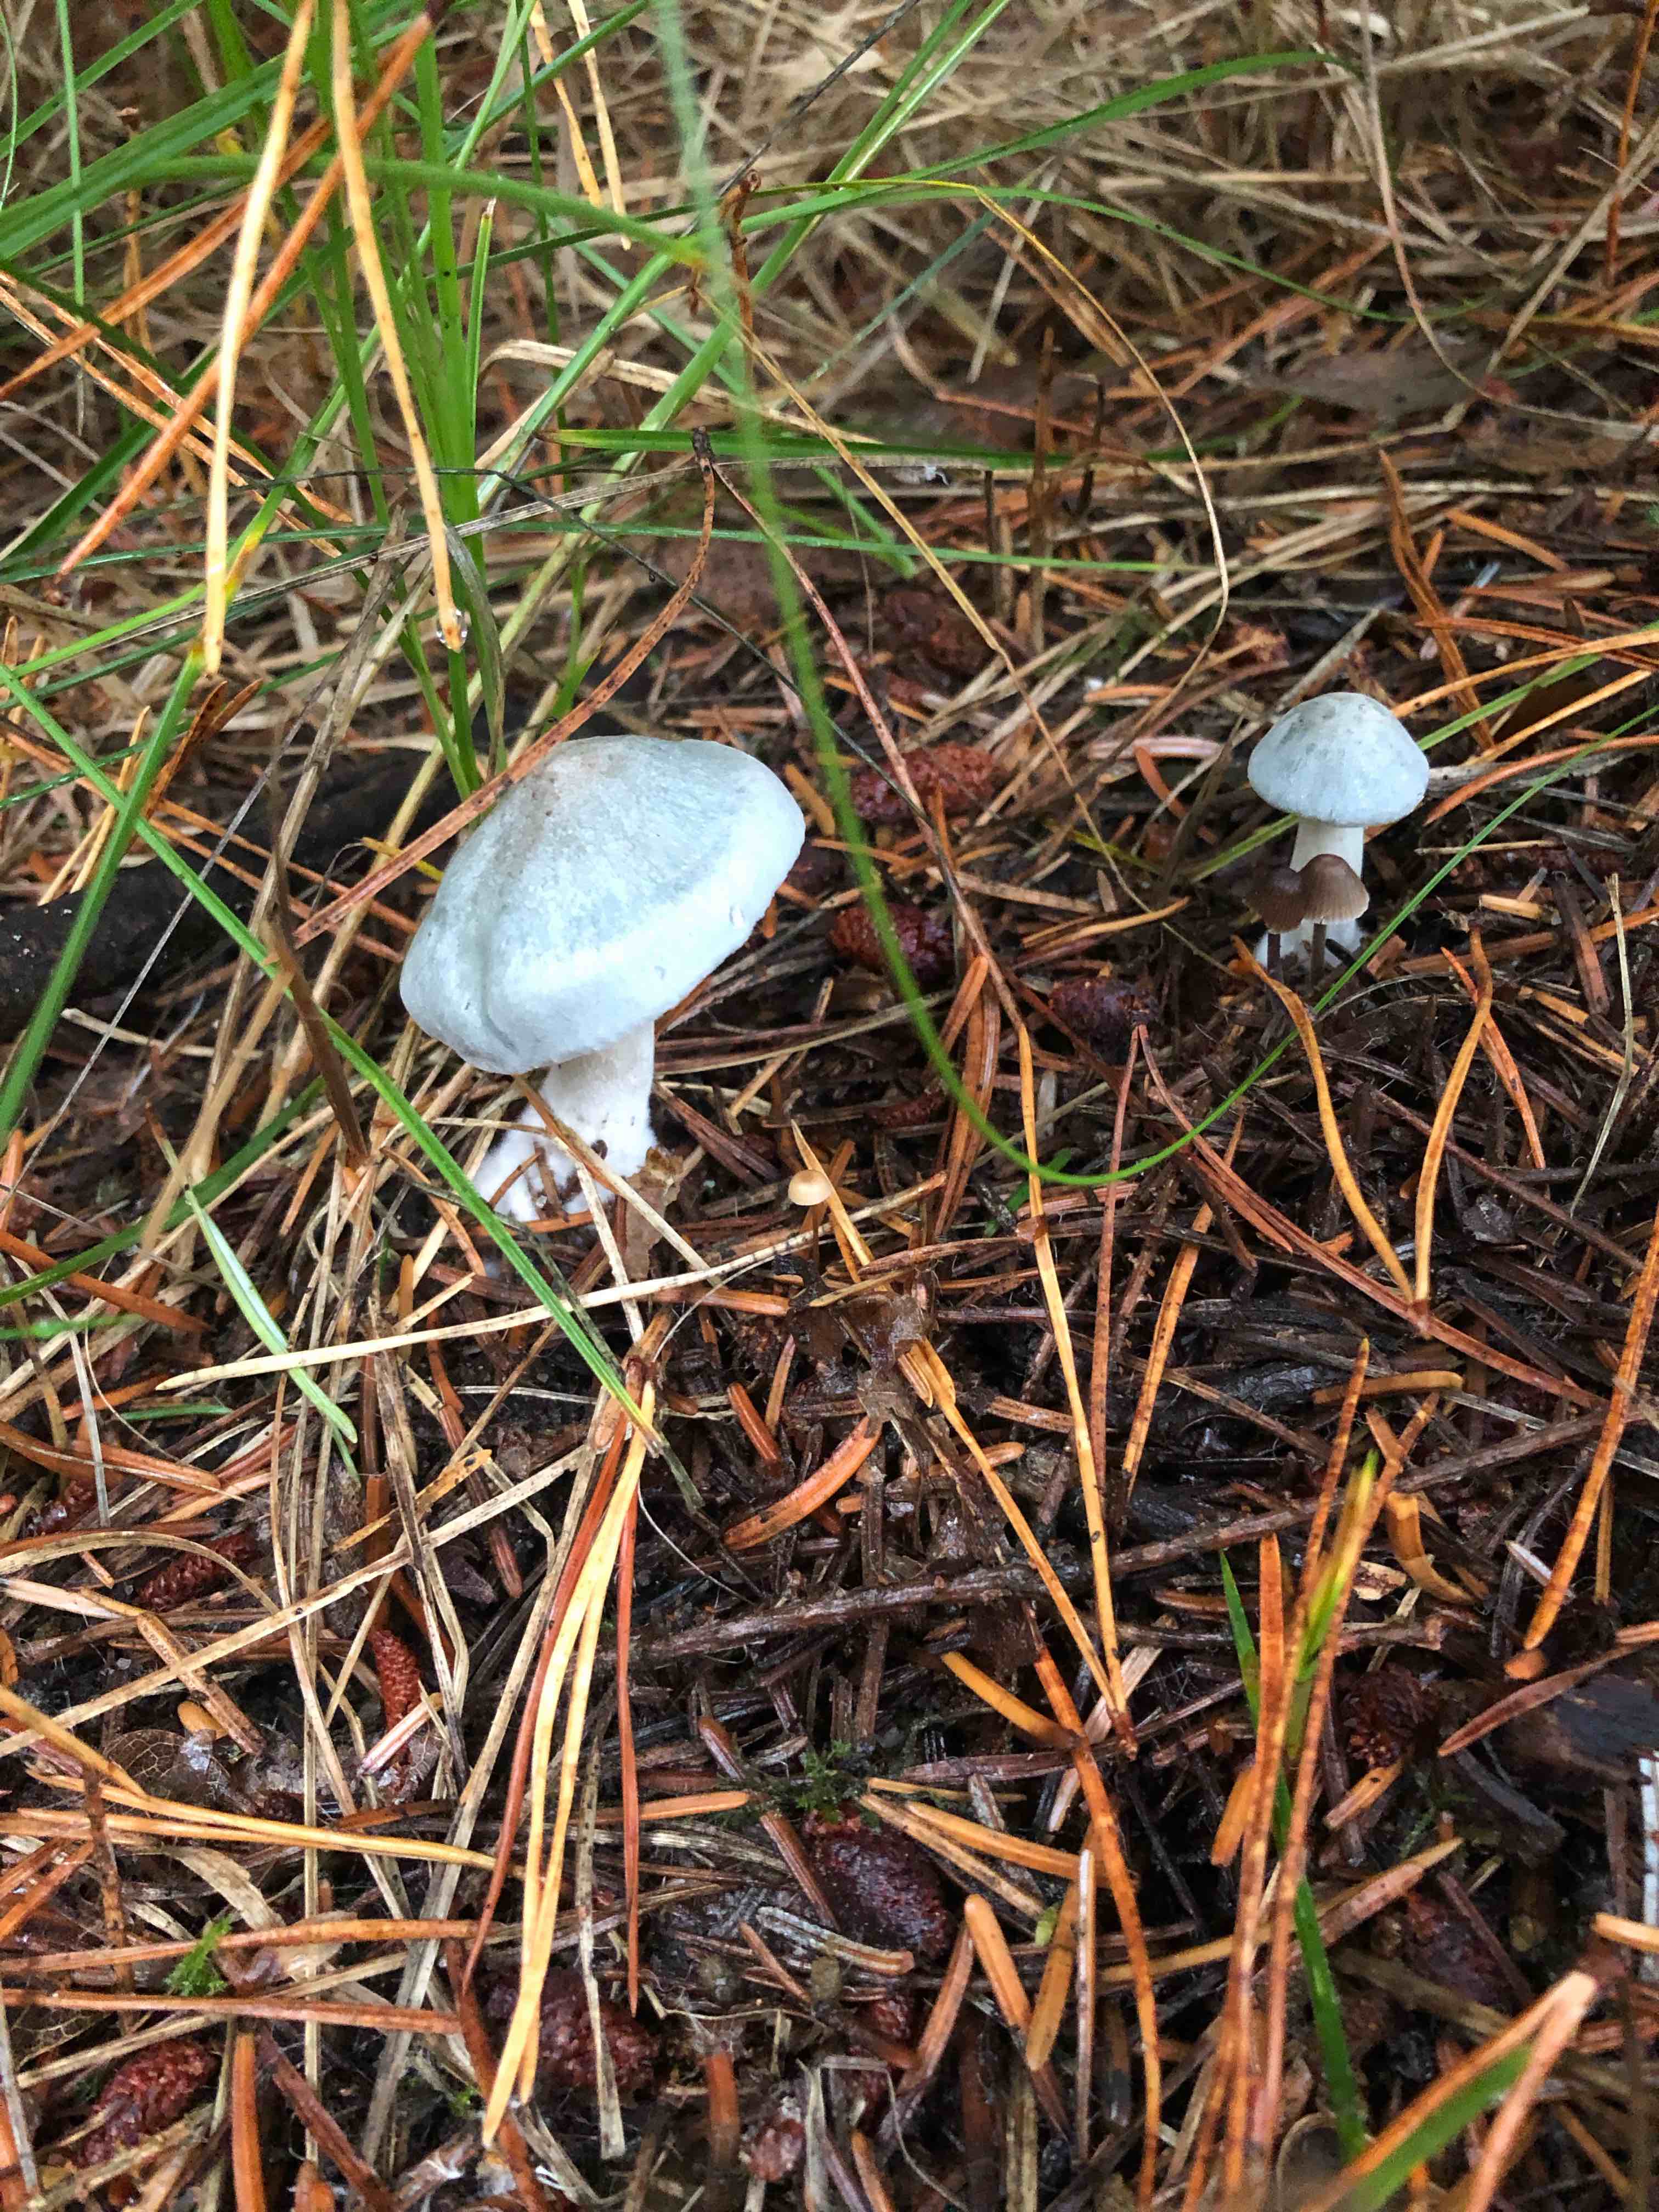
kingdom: Fungi
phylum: Basidiomycota
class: Agaricomycetes
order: Agaricales
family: Tricholomataceae
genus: Clitocybe
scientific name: Clitocybe odora
